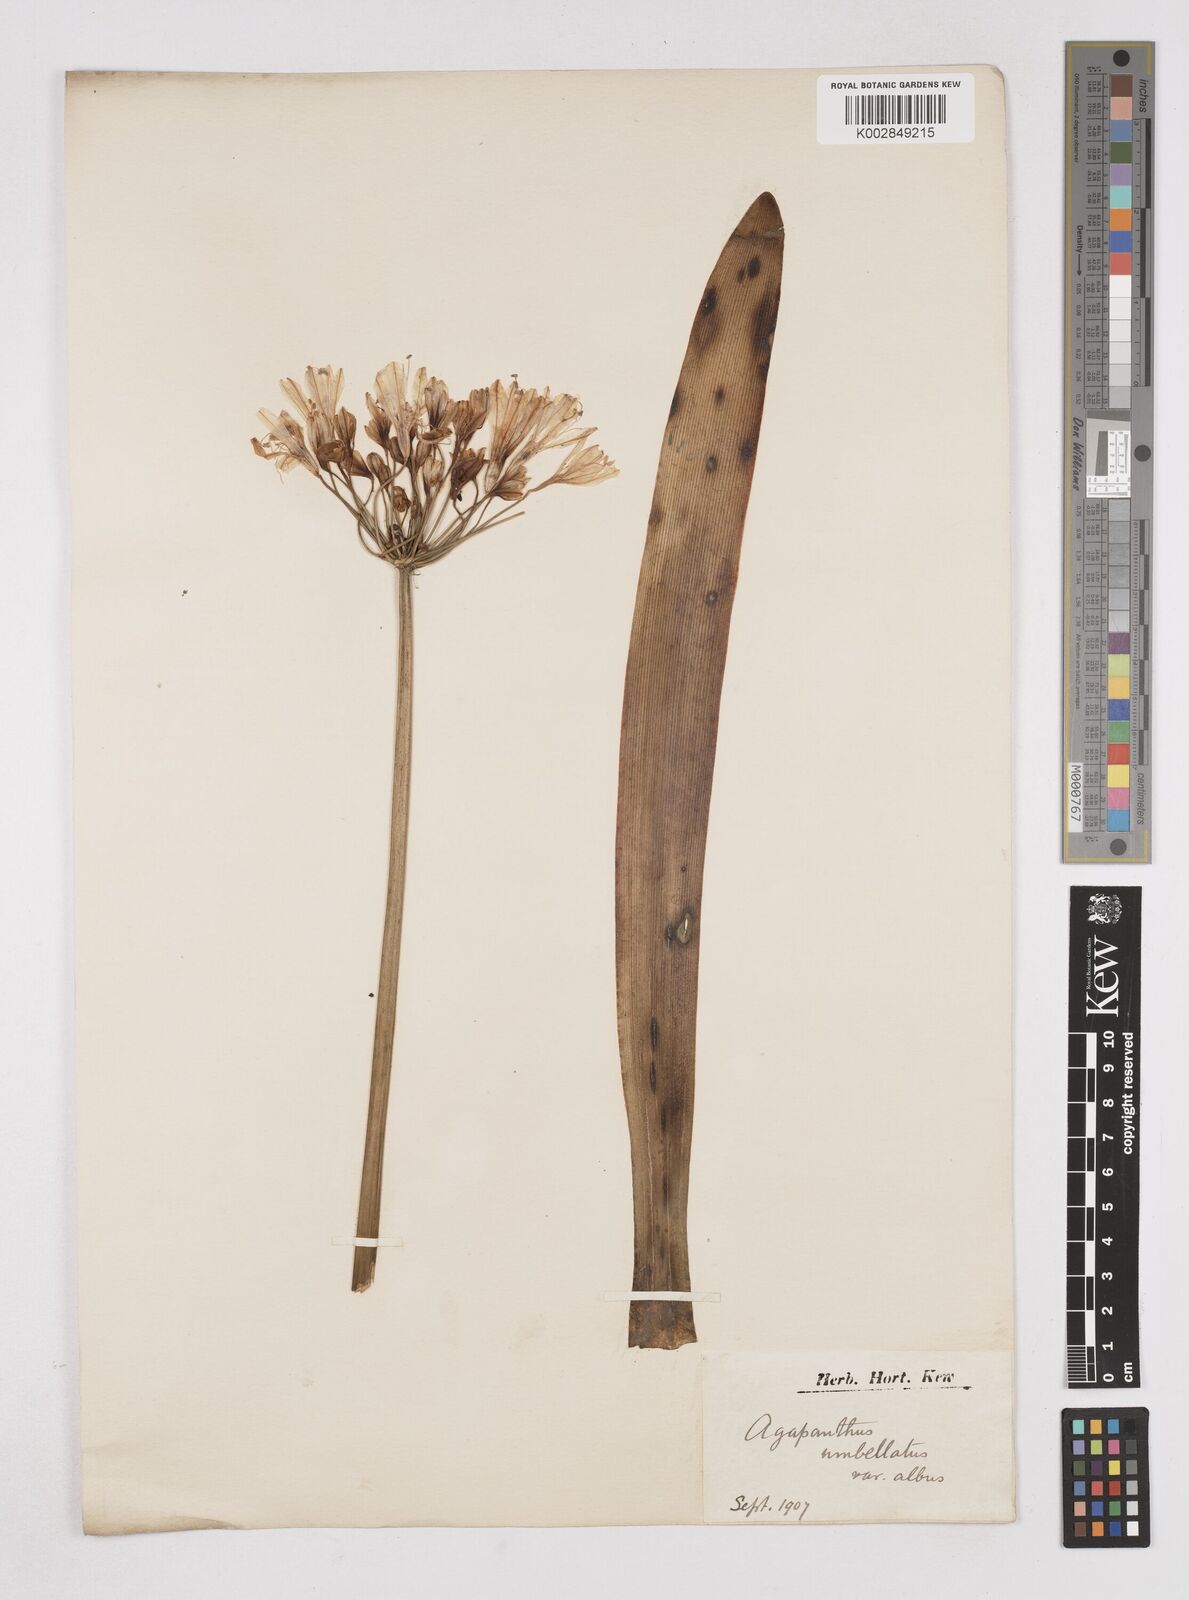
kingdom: Plantae
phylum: Tracheophyta
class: Liliopsida
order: Asparagales
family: Amaryllidaceae
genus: Agapanthus
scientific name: Agapanthus africanus
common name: Lily-of-the-nile
